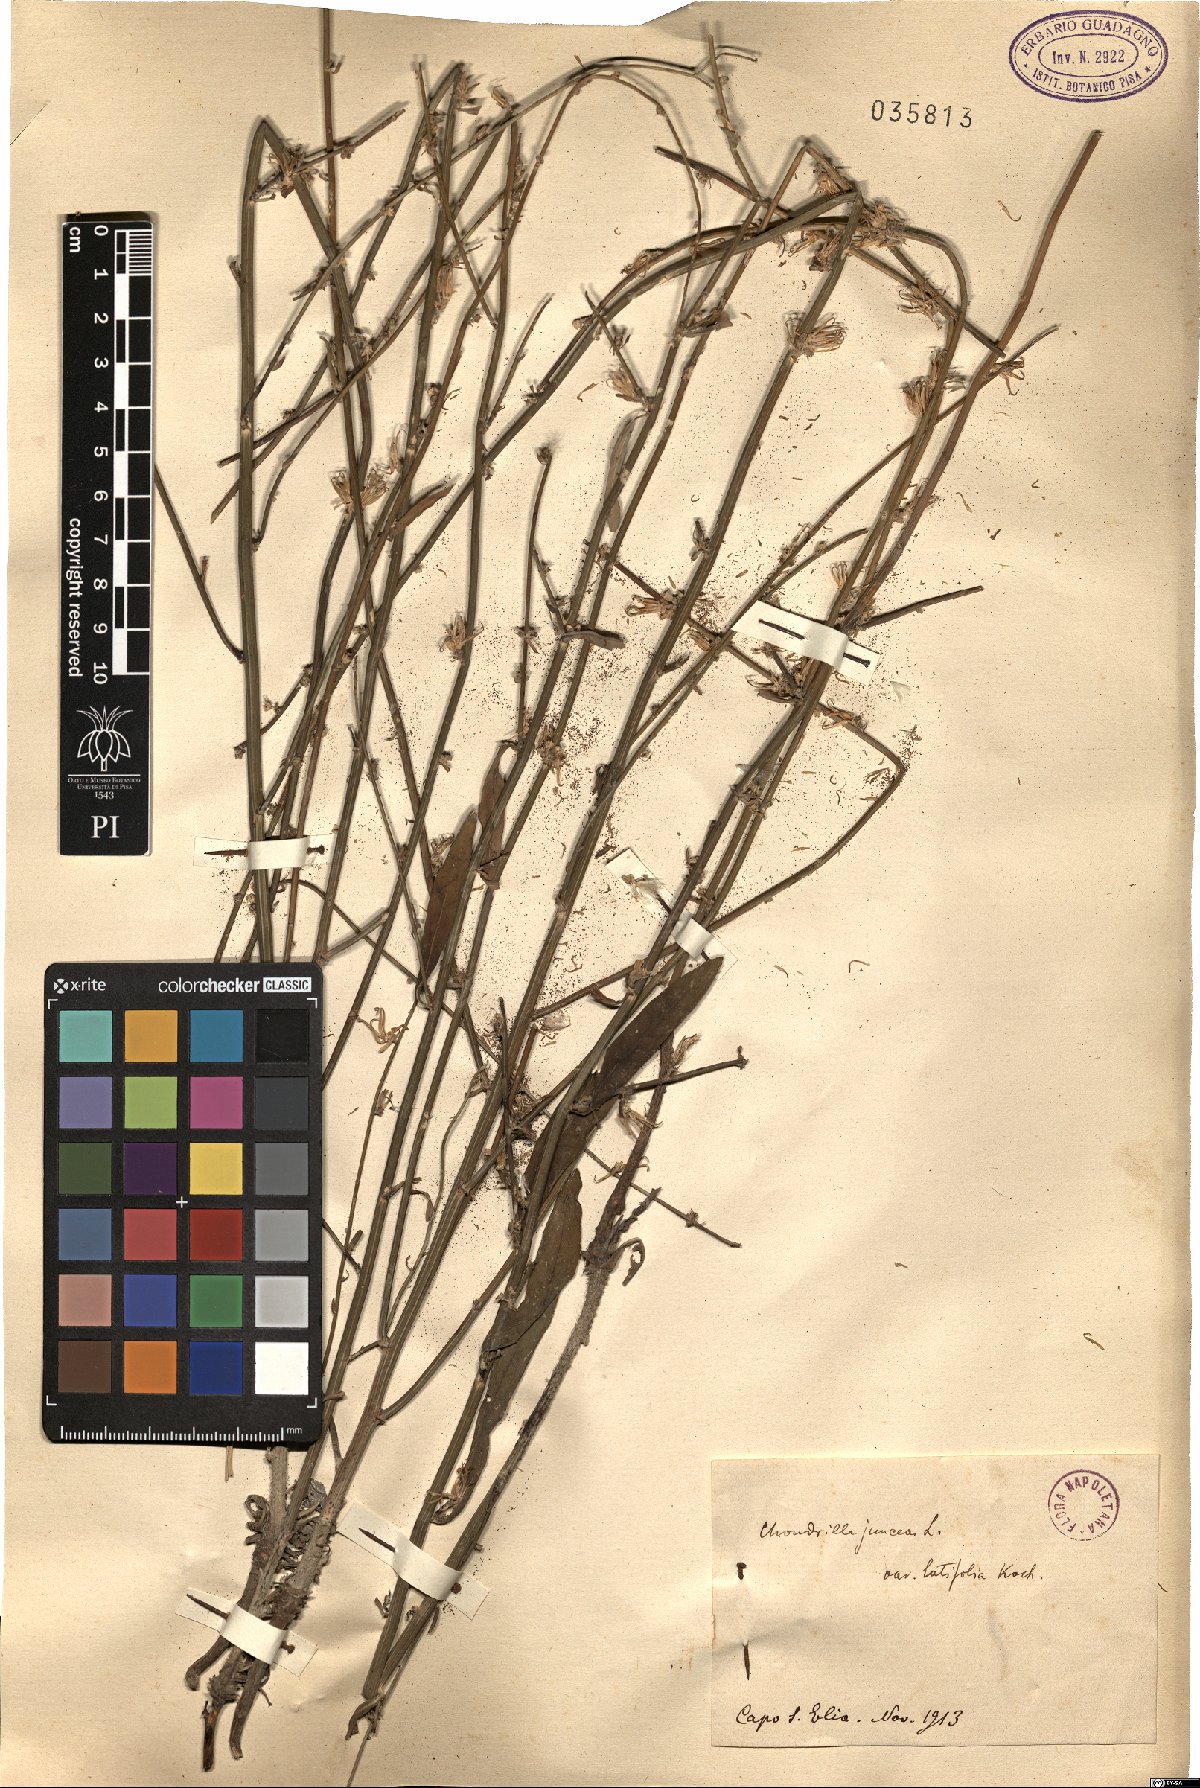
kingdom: Plantae
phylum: Tracheophyta
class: Magnoliopsida
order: Asterales
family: Asteraceae
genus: Chondrilla
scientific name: Chondrilla latifolia
